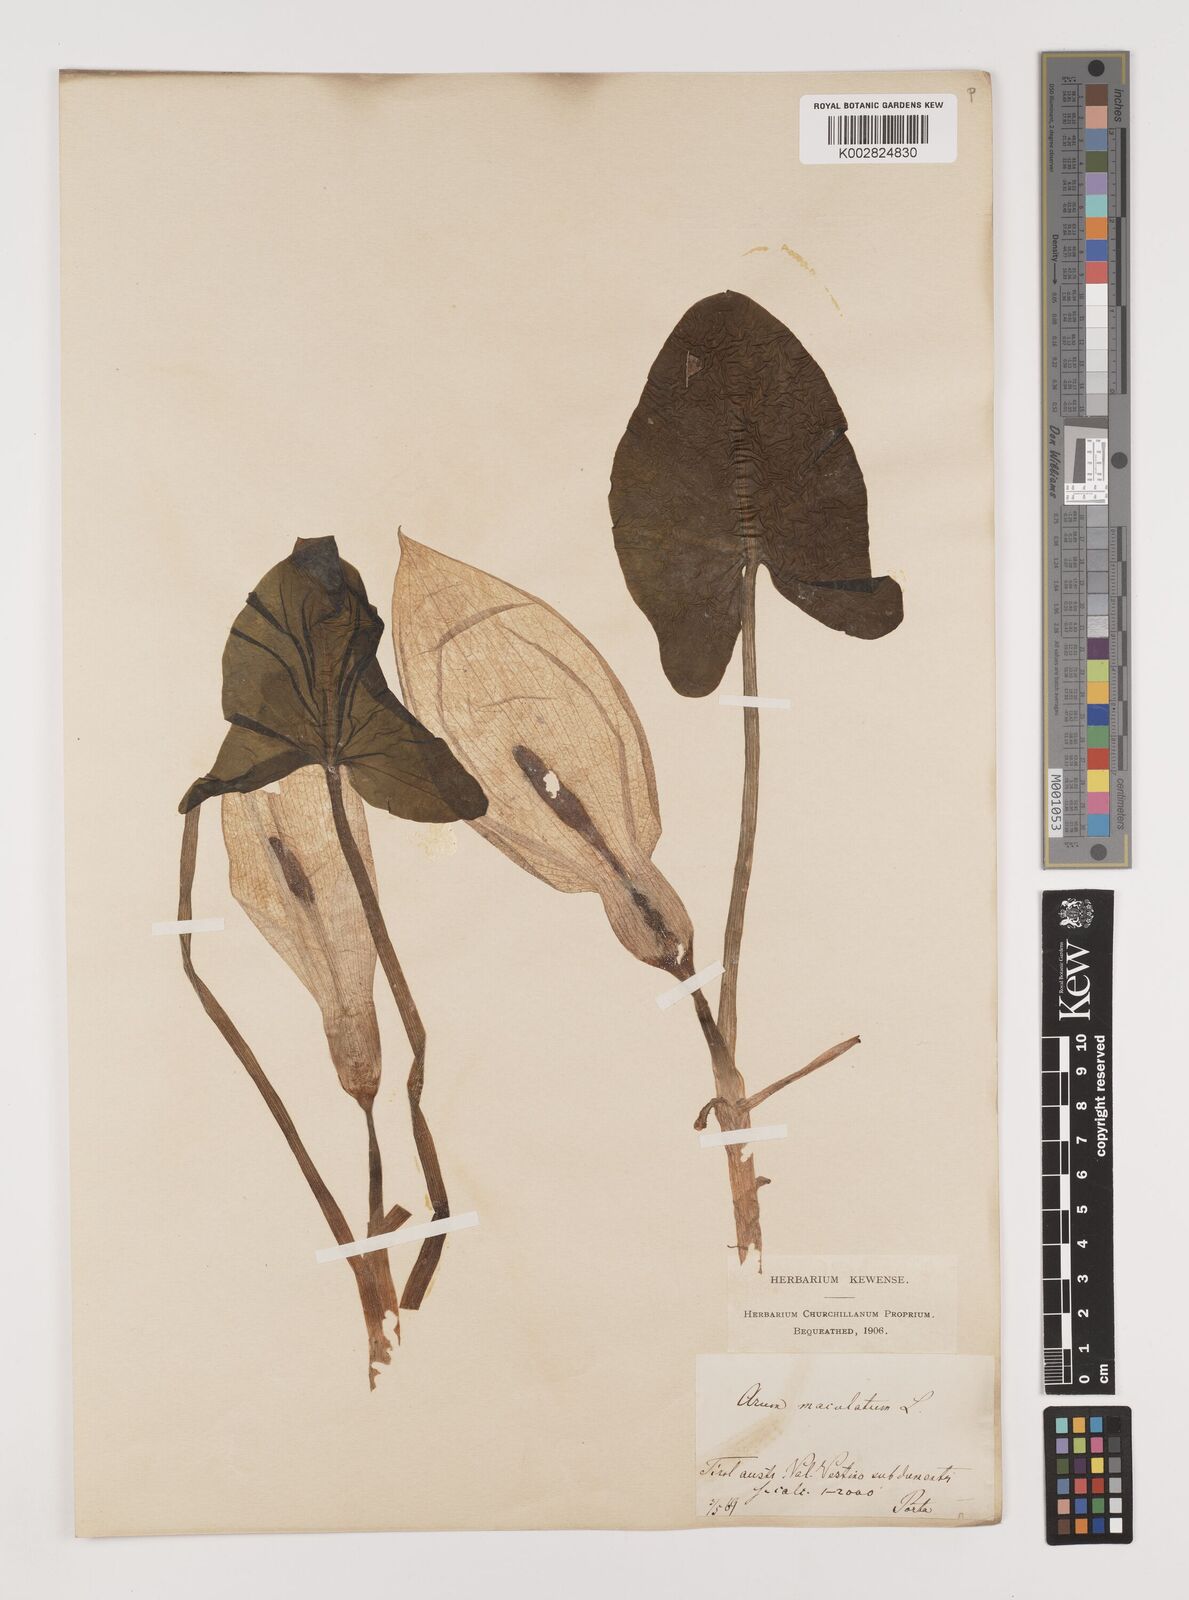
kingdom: Plantae
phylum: Tracheophyta
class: Liliopsida
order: Alismatales
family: Araceae
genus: Arum
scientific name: Arum maculatum
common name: Lords-and-ladies
